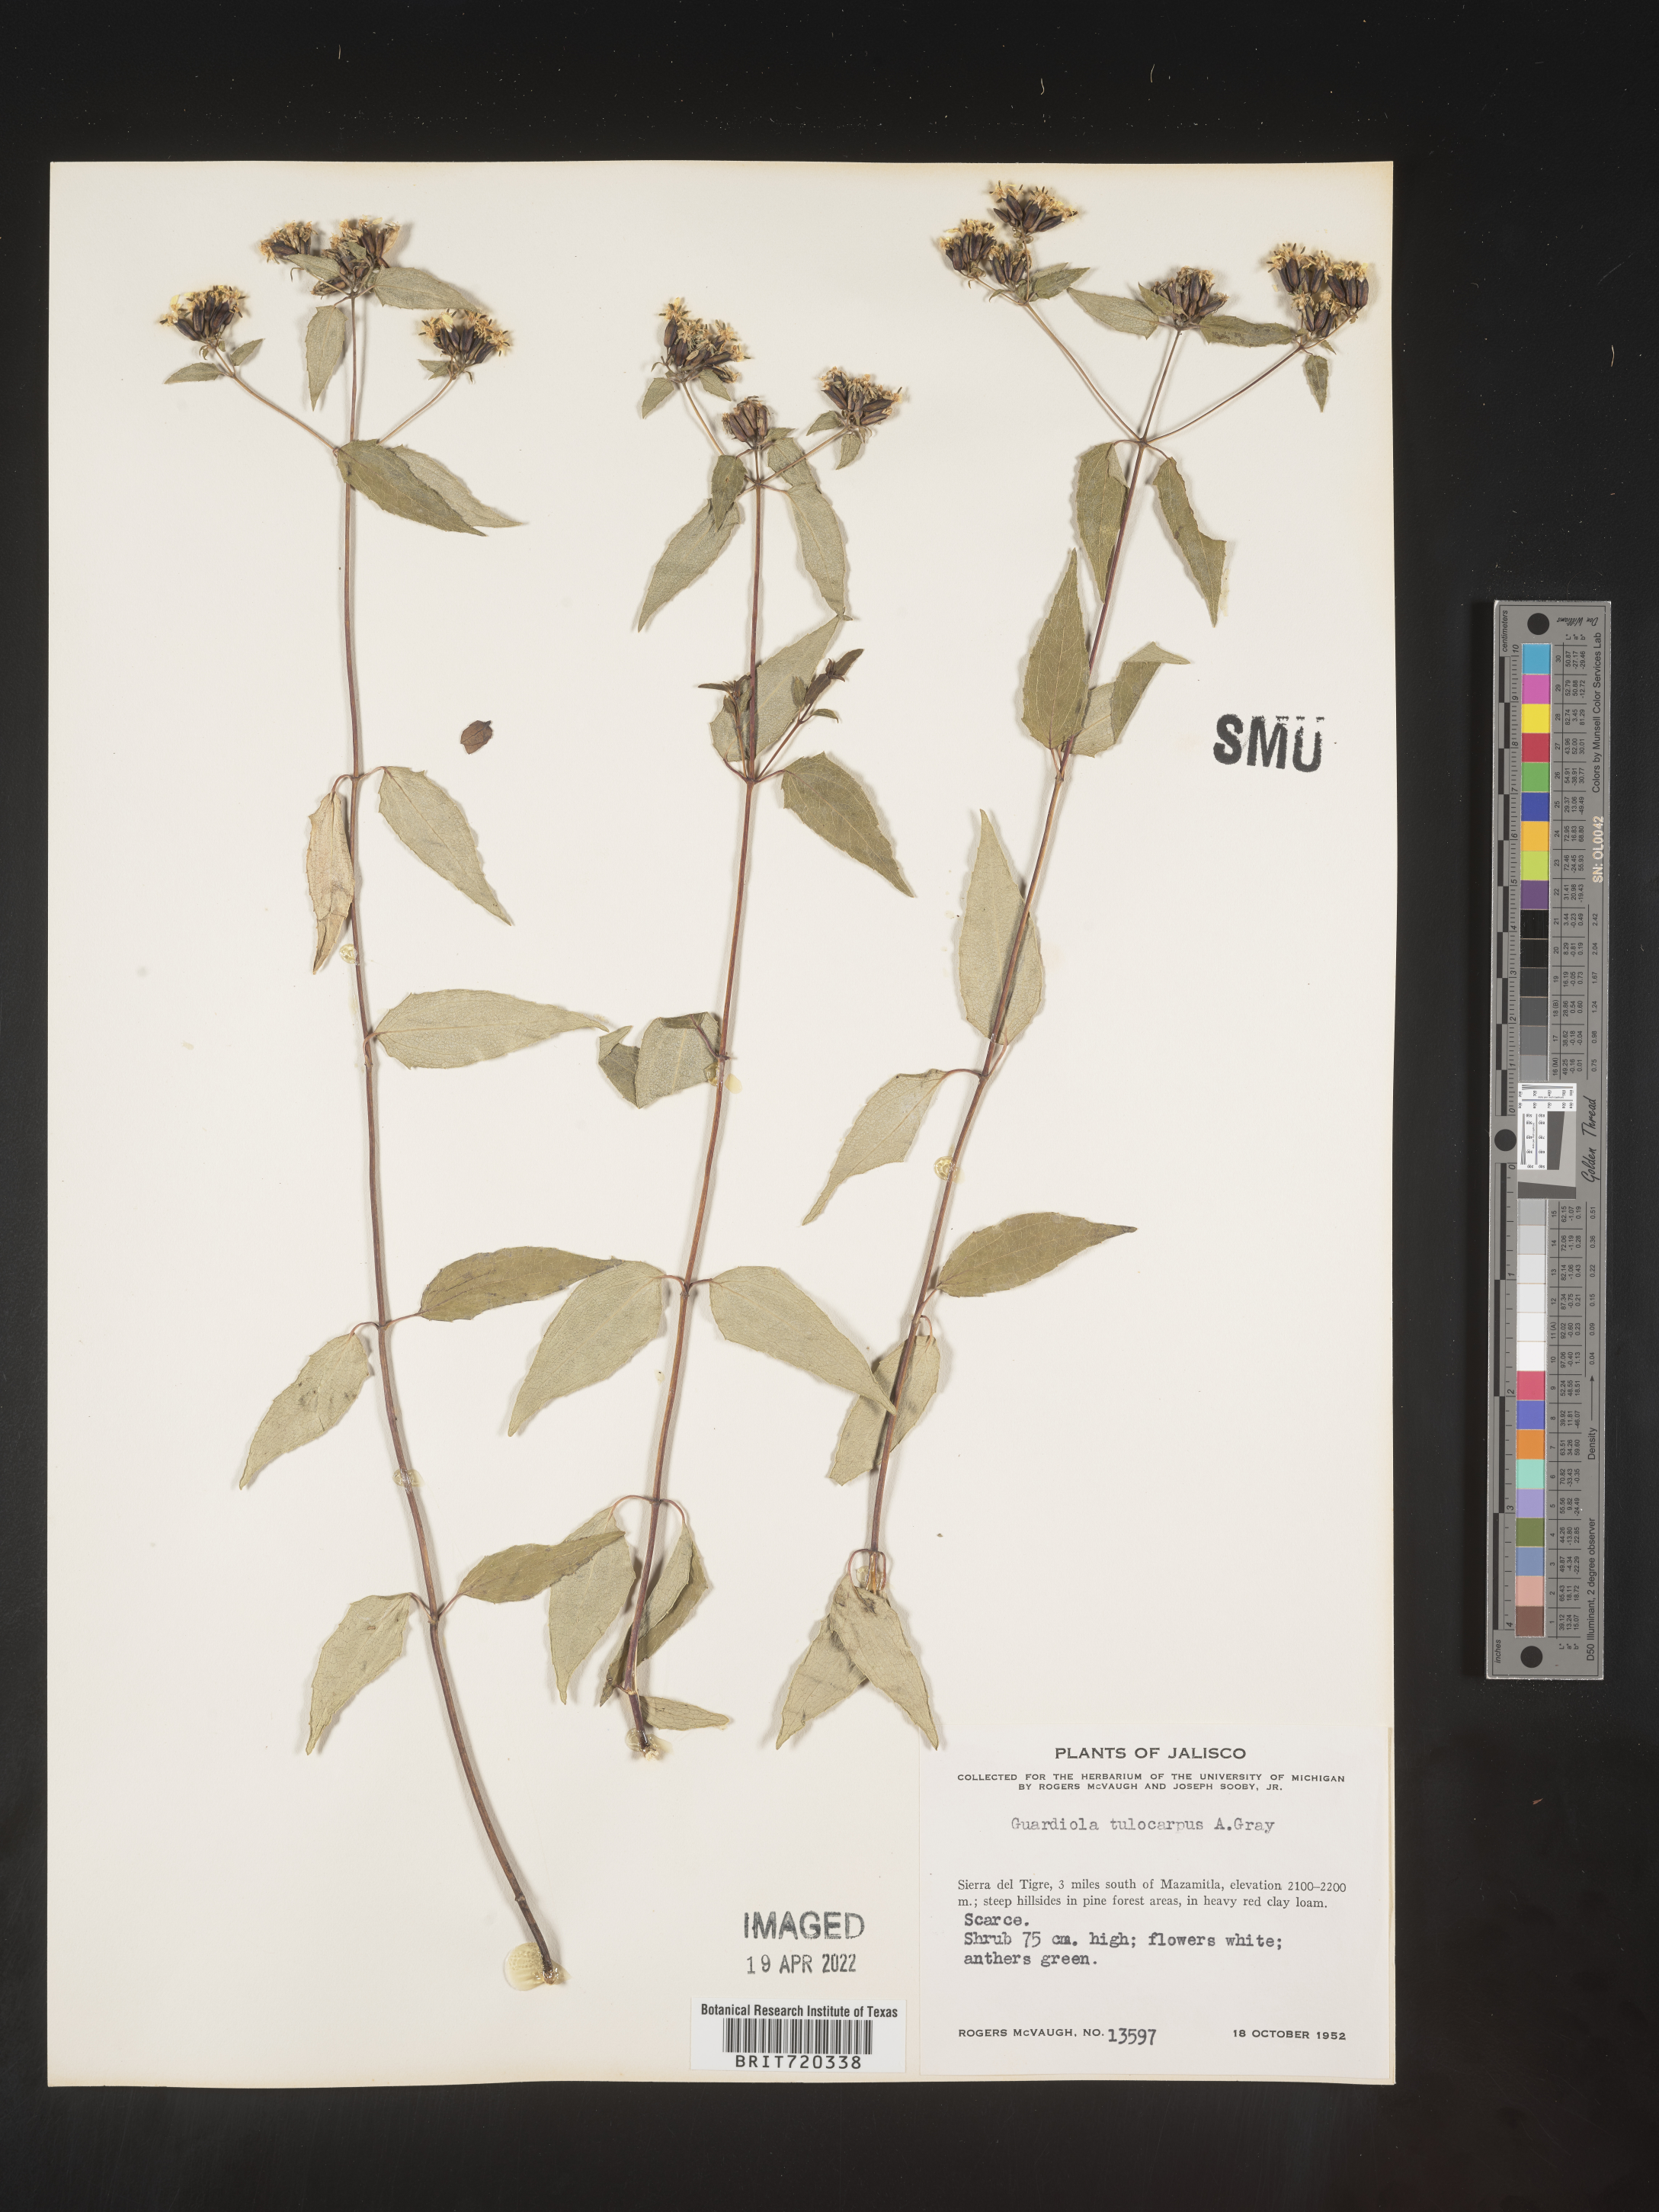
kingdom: Plantae
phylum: Tracheophyta
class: Magnoliopsida
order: Asterales
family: Asteraceae
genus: Guardiola
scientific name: Guardiola
